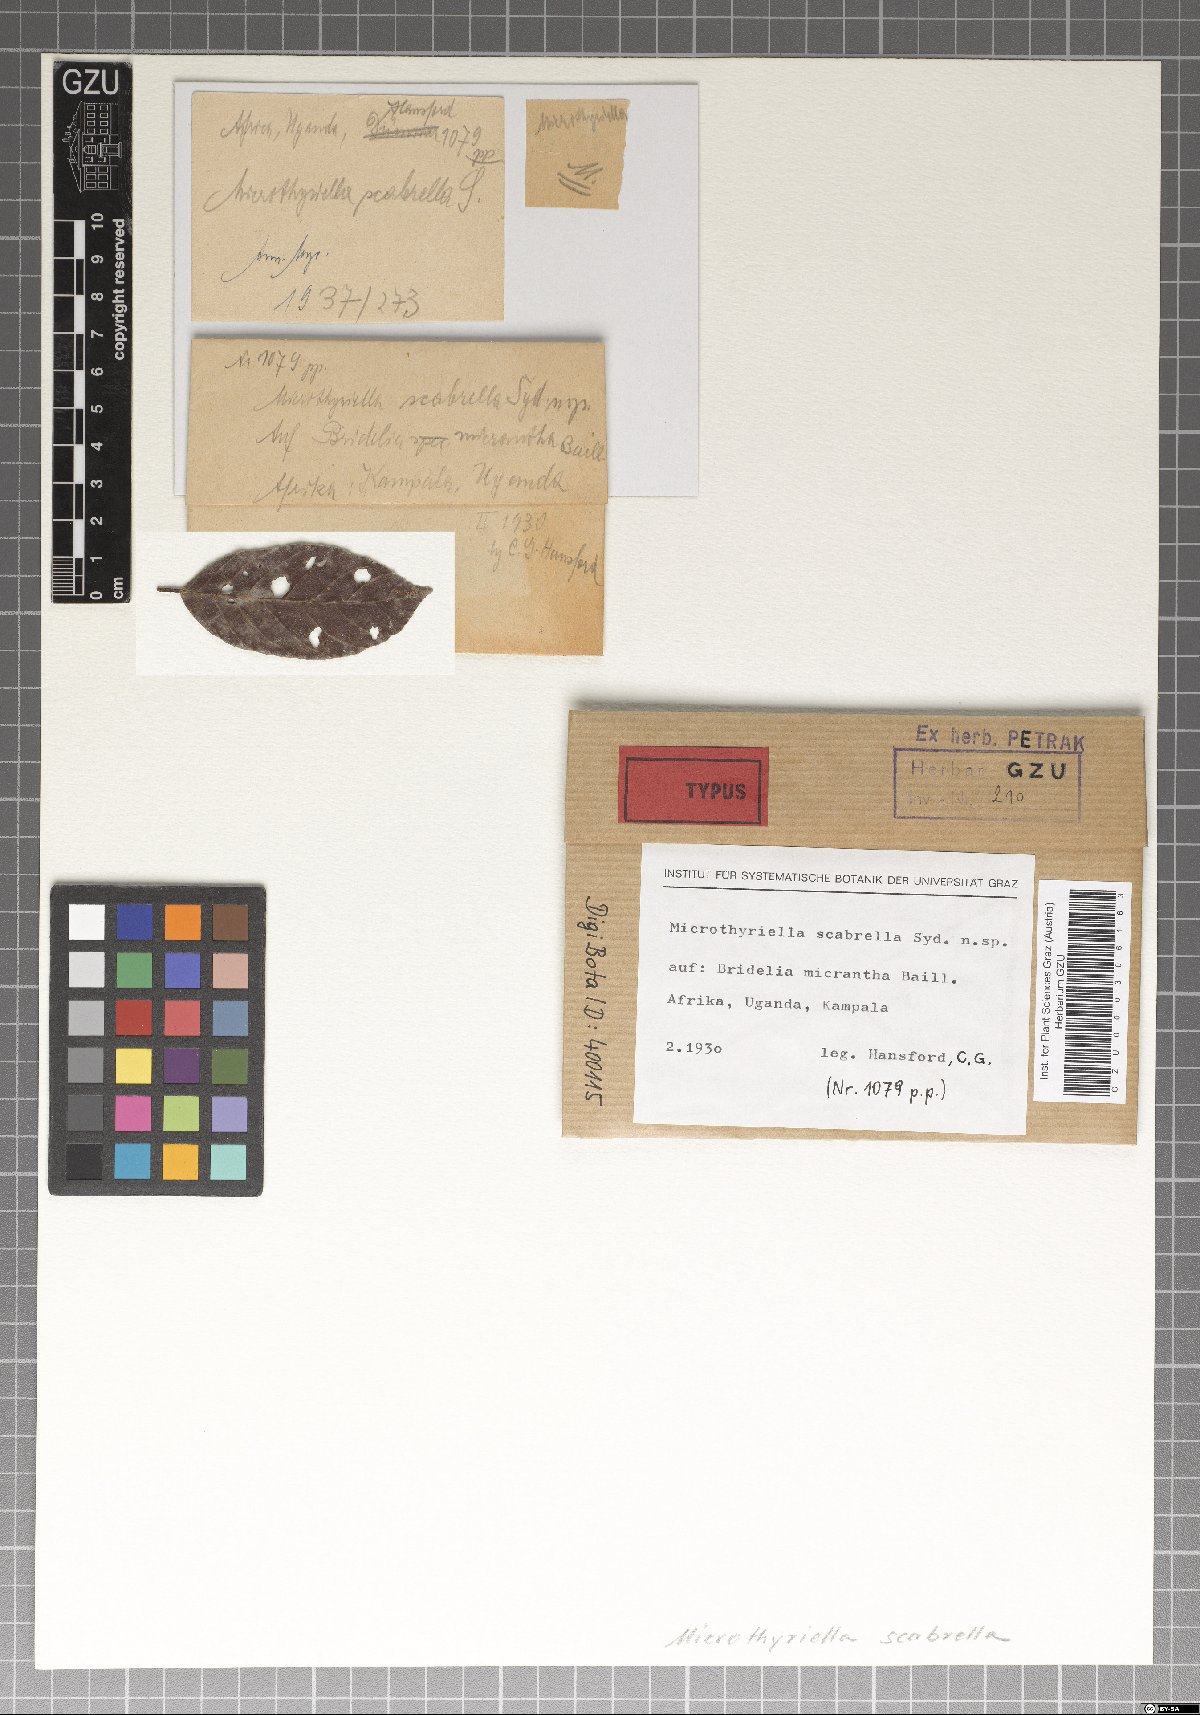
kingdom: Fungi
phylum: Ascomycota
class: Dothideomycetes
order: Mycosphaerellales
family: Schizothyriaceae
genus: Didymothyriella
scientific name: Didymothyriella scabrella
